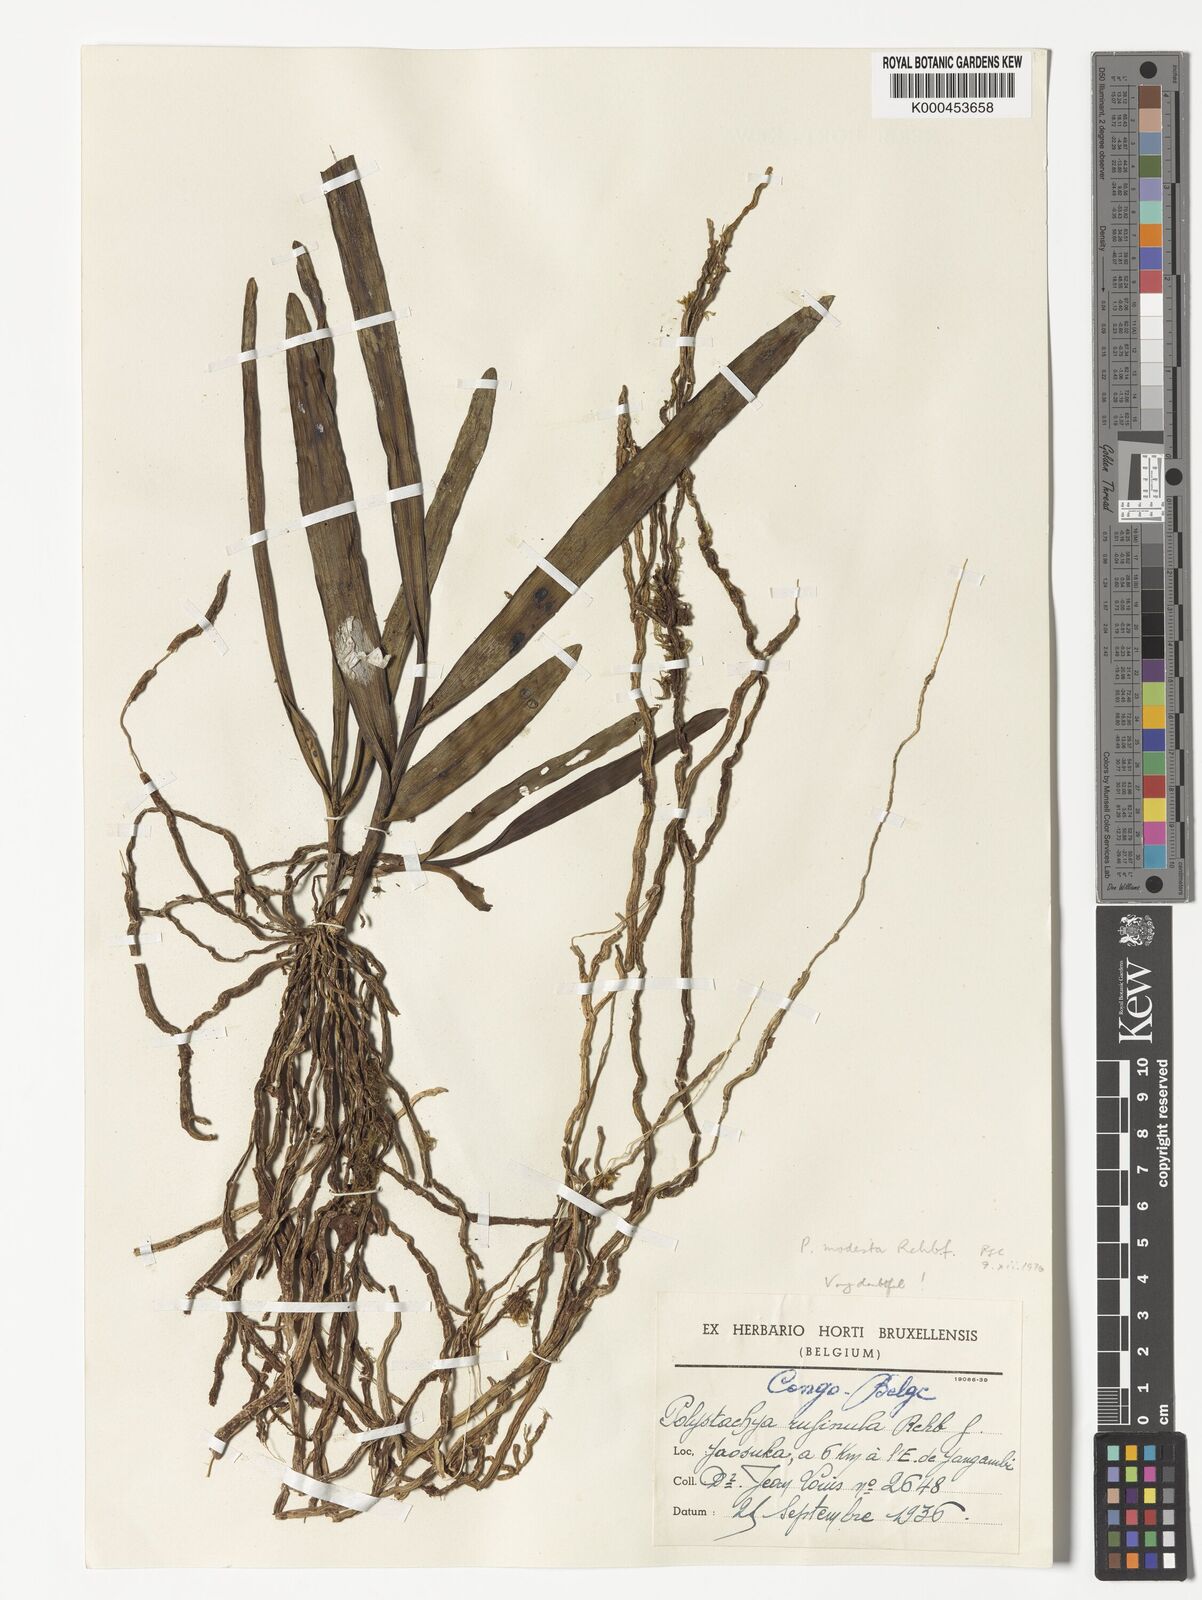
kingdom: Plantae
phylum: Tracheophyta
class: Liliopsida
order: Asparagales
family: Orchidaceae
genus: Polystachya
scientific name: Polystachya modesta
